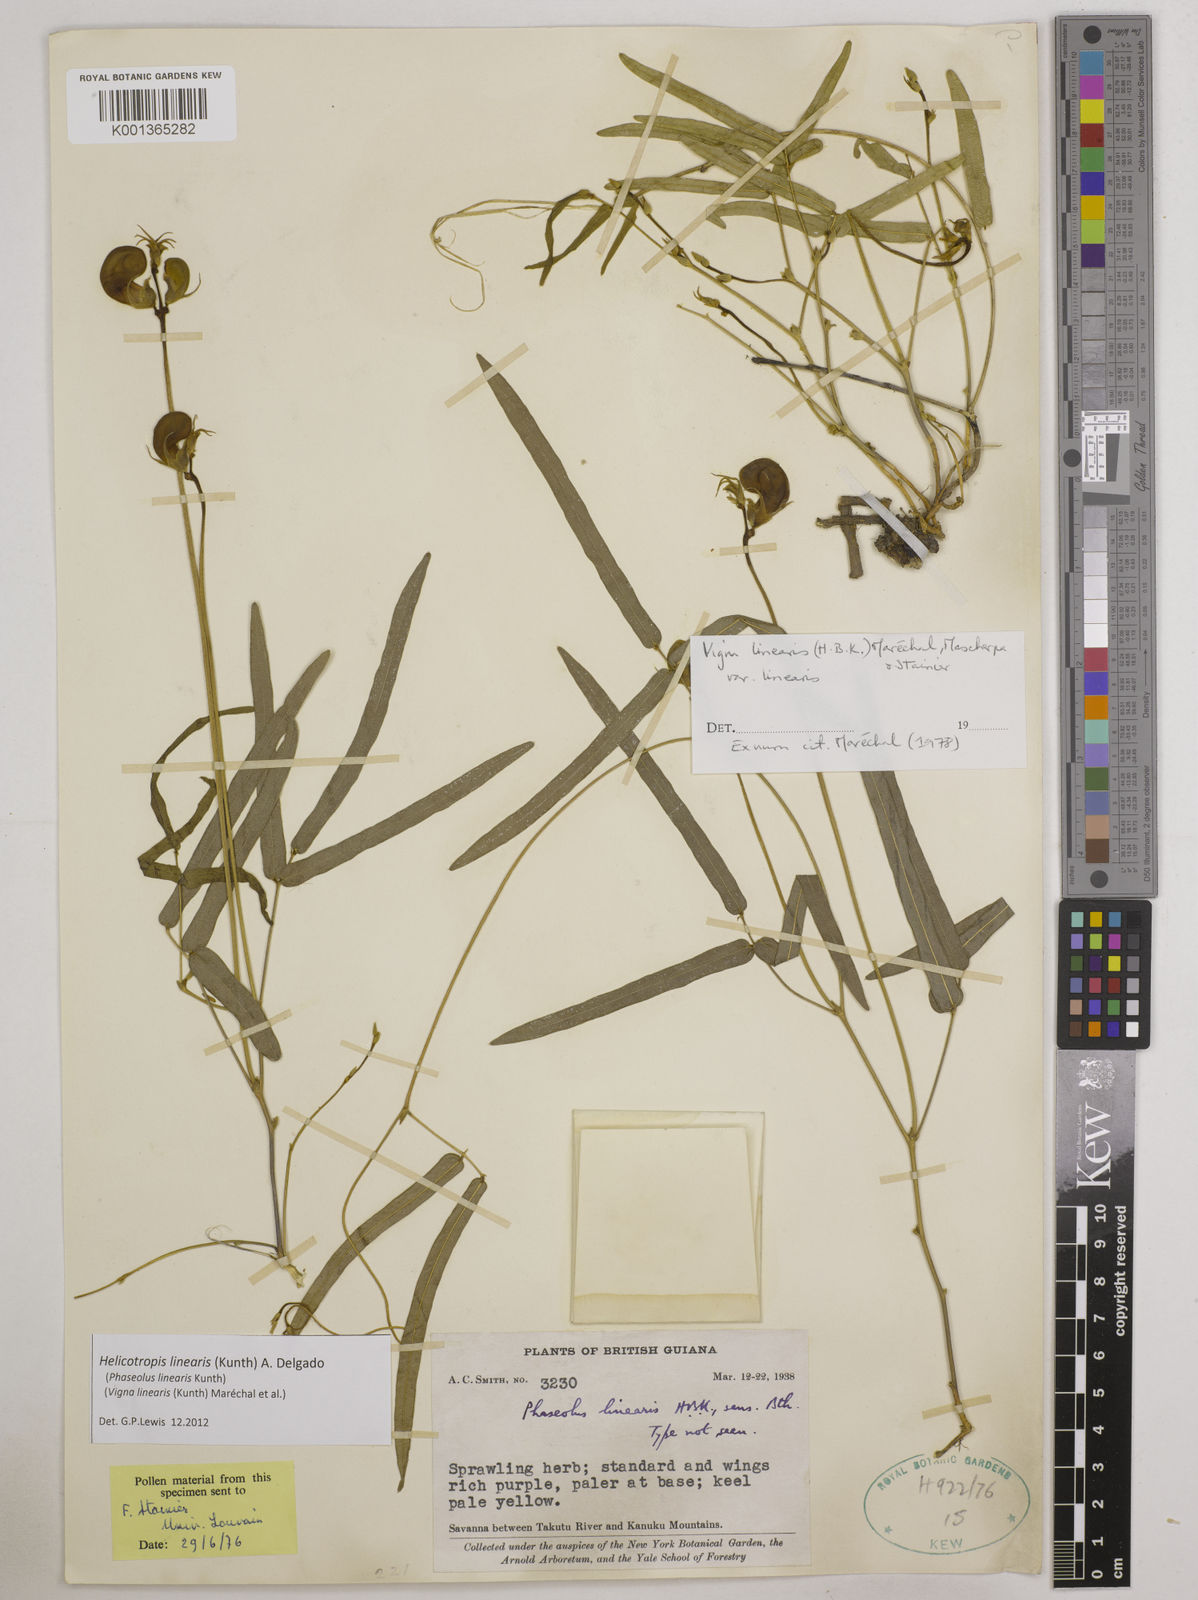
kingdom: Plantae
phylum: Tracheophyta
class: Magnoliopsida
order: Fabales
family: Fabaceae
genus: Helicotropis
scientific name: Helicotropis linearis
